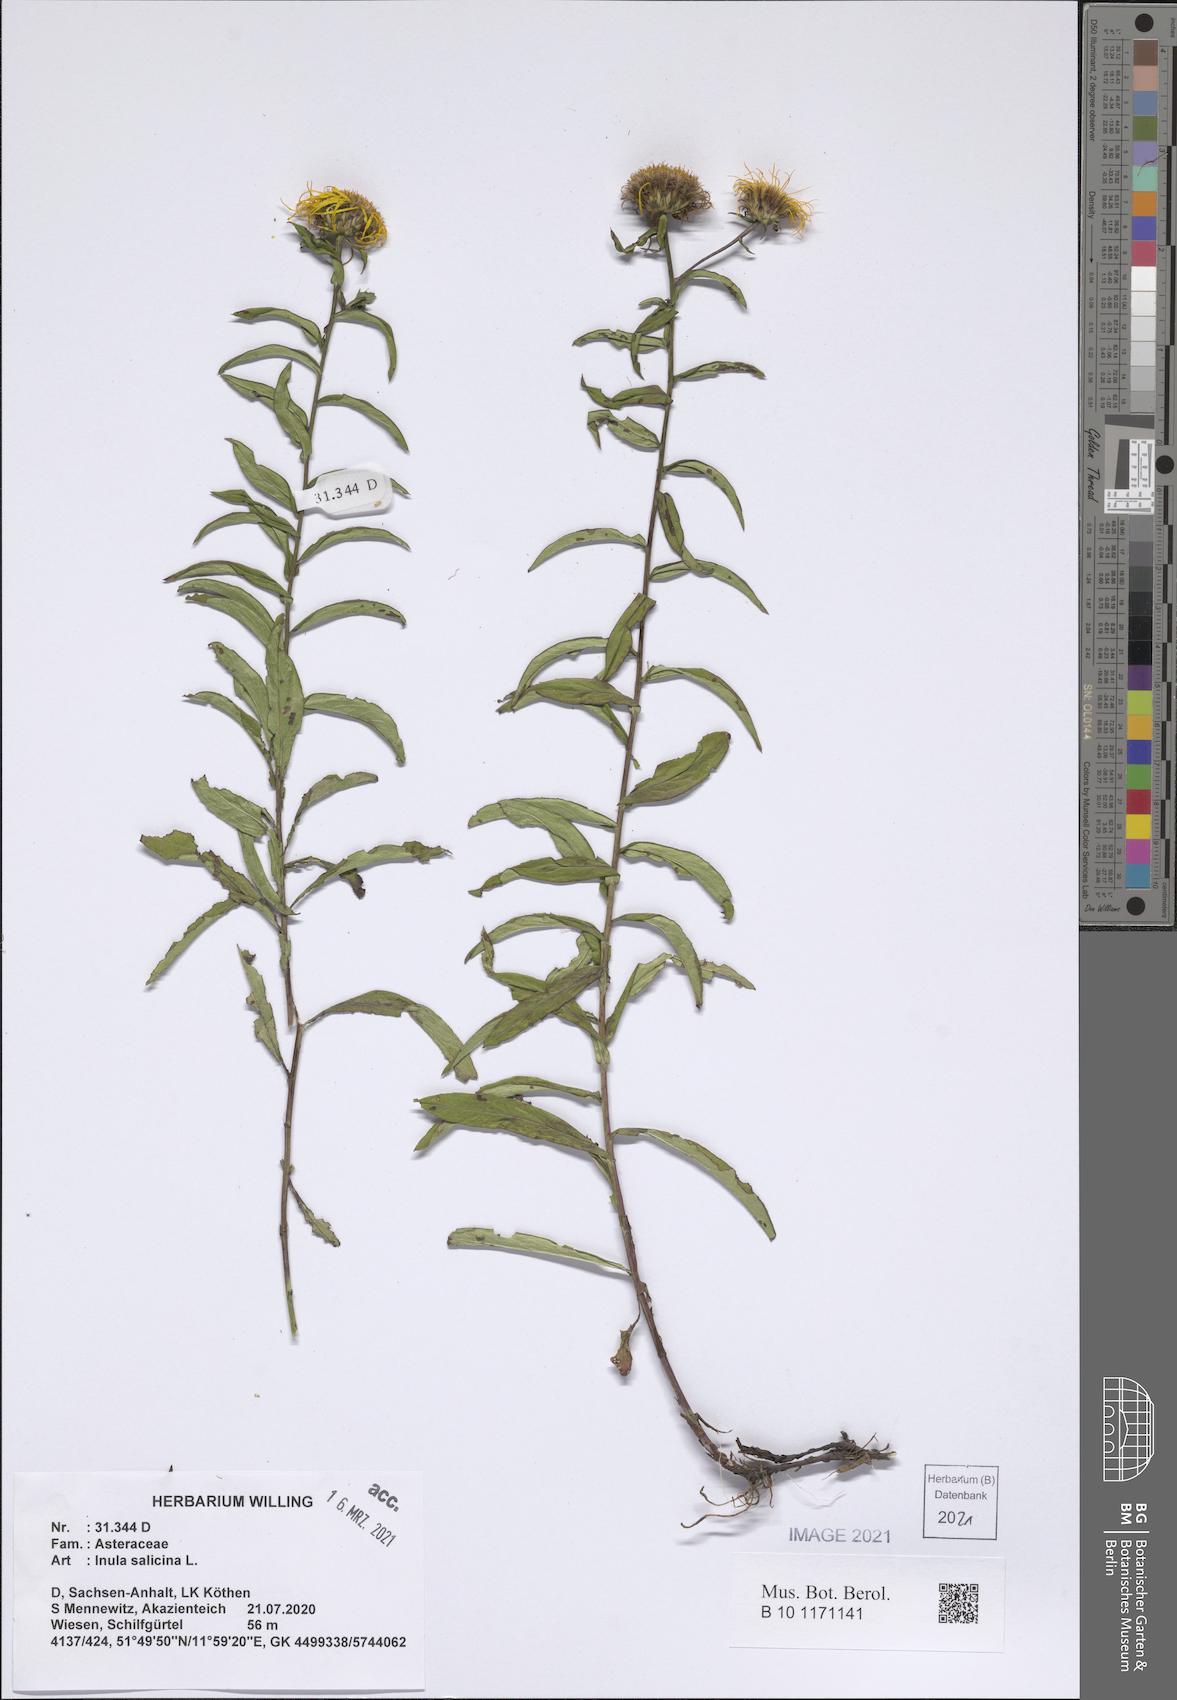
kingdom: Plantae
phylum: Tracheophyta
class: Magnoliopsida
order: Asterales
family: Asteraceae
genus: Pentanema
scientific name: Pentanema salicinum
